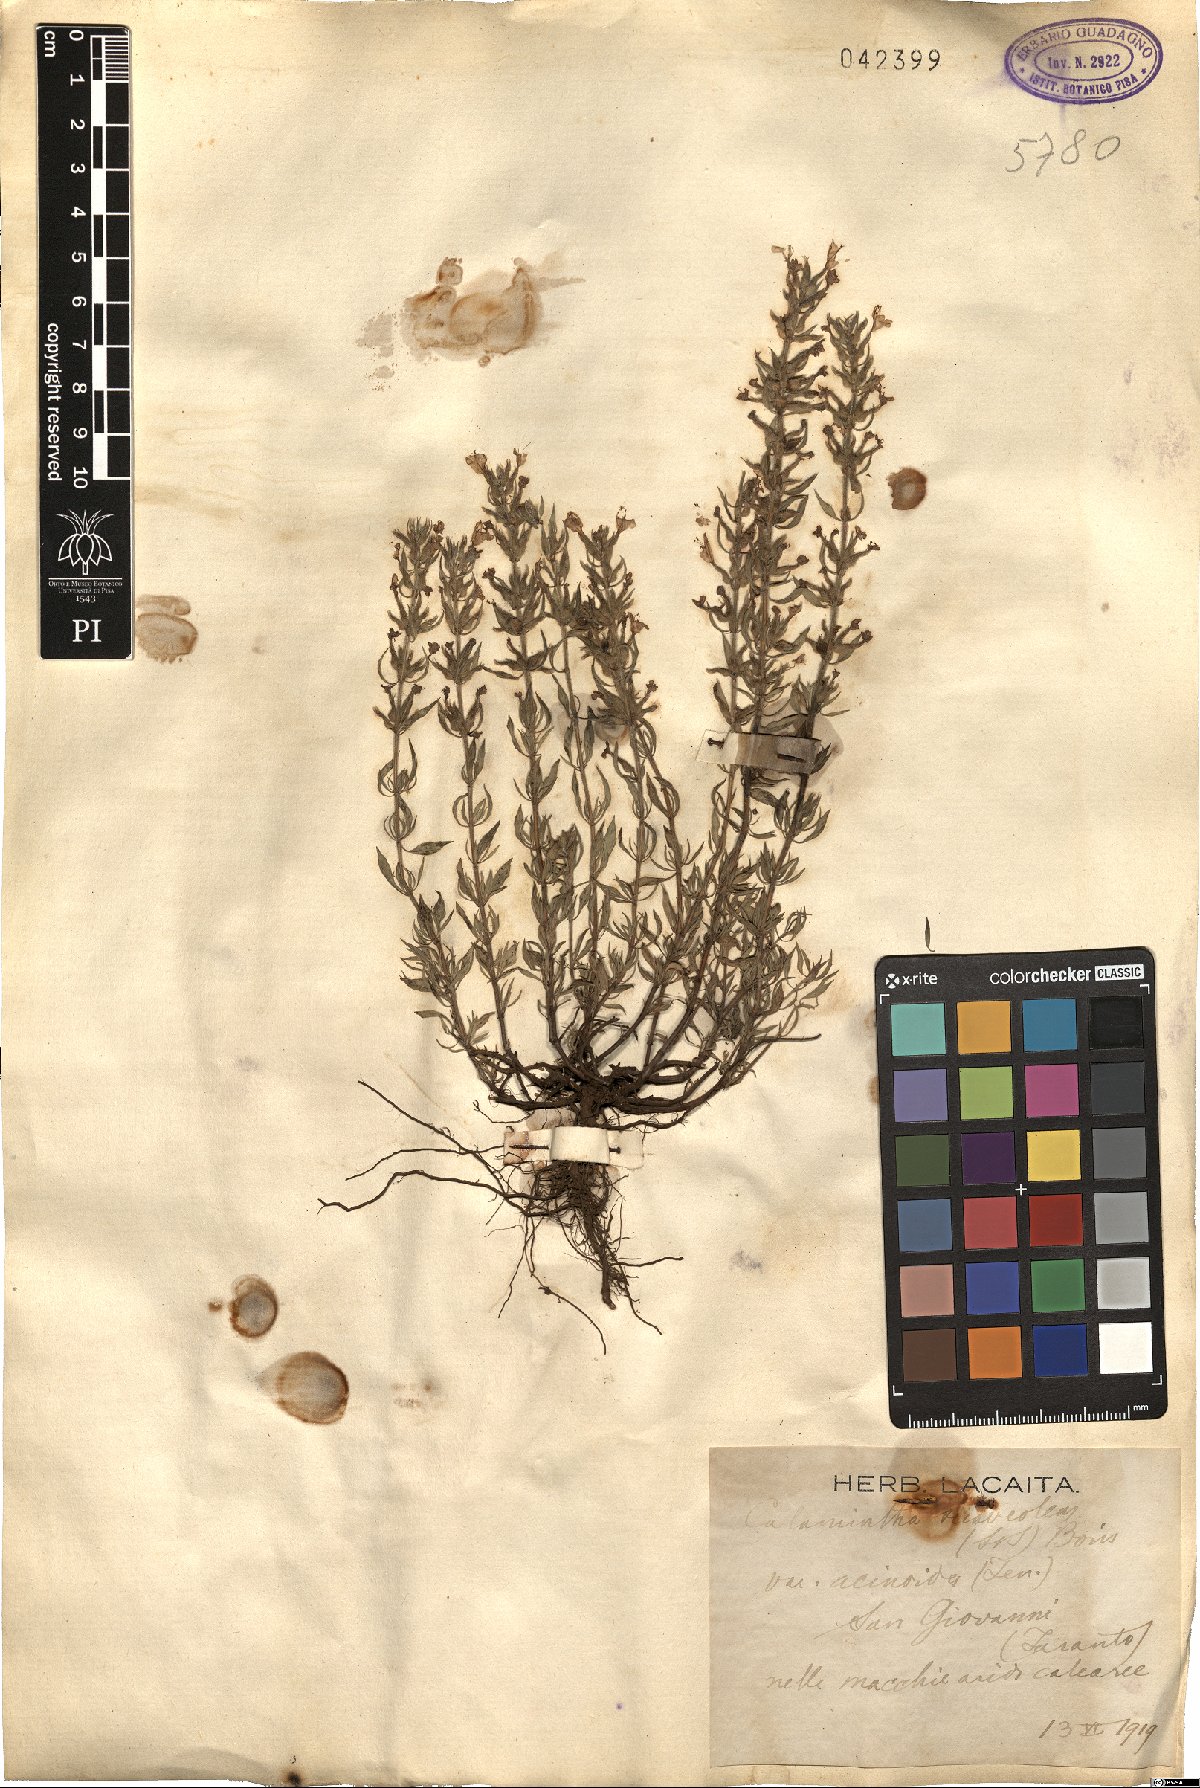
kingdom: Plantae
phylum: Tracheophyta
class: Magnoliopsida
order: Lamiales
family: Lamiaceae
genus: Clinopodium
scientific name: Clinopodium suaveolens
